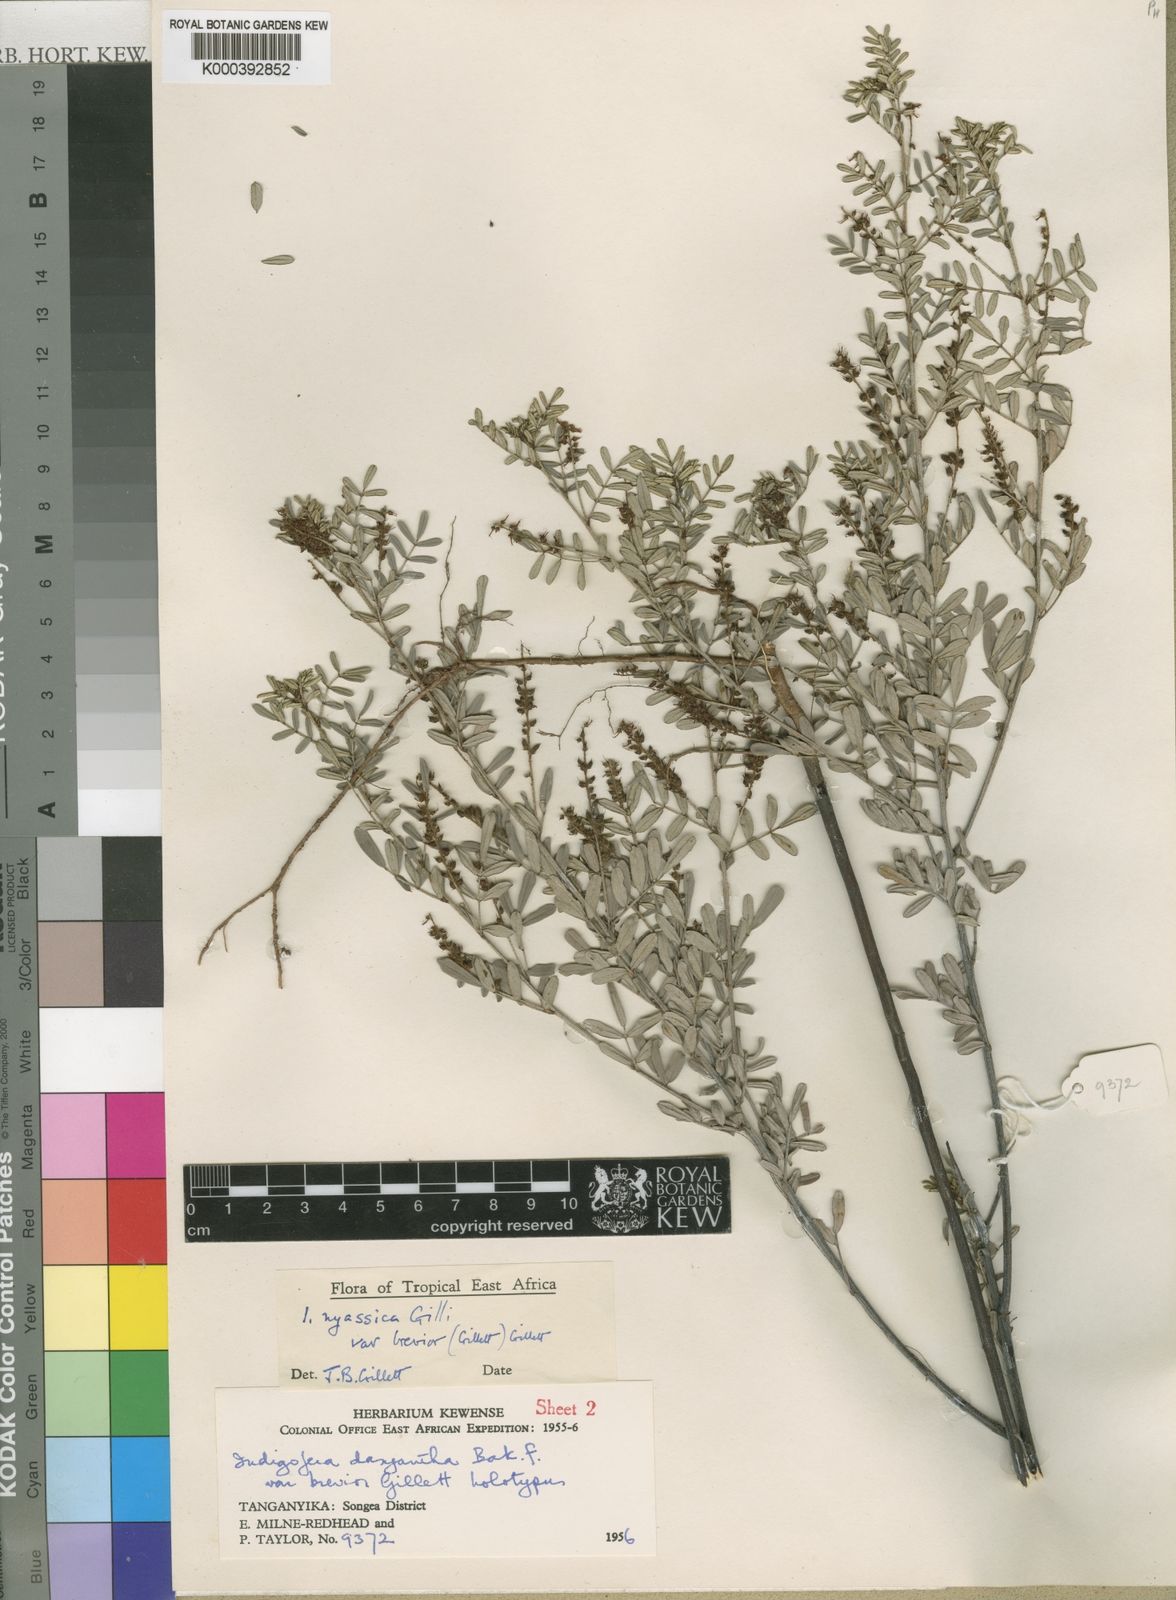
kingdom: Plantae
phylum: Tracheophyta
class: Magnoliopsida
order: Fabales
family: Fabaceae
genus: Indigofera
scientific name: Indigofera dasyantha
